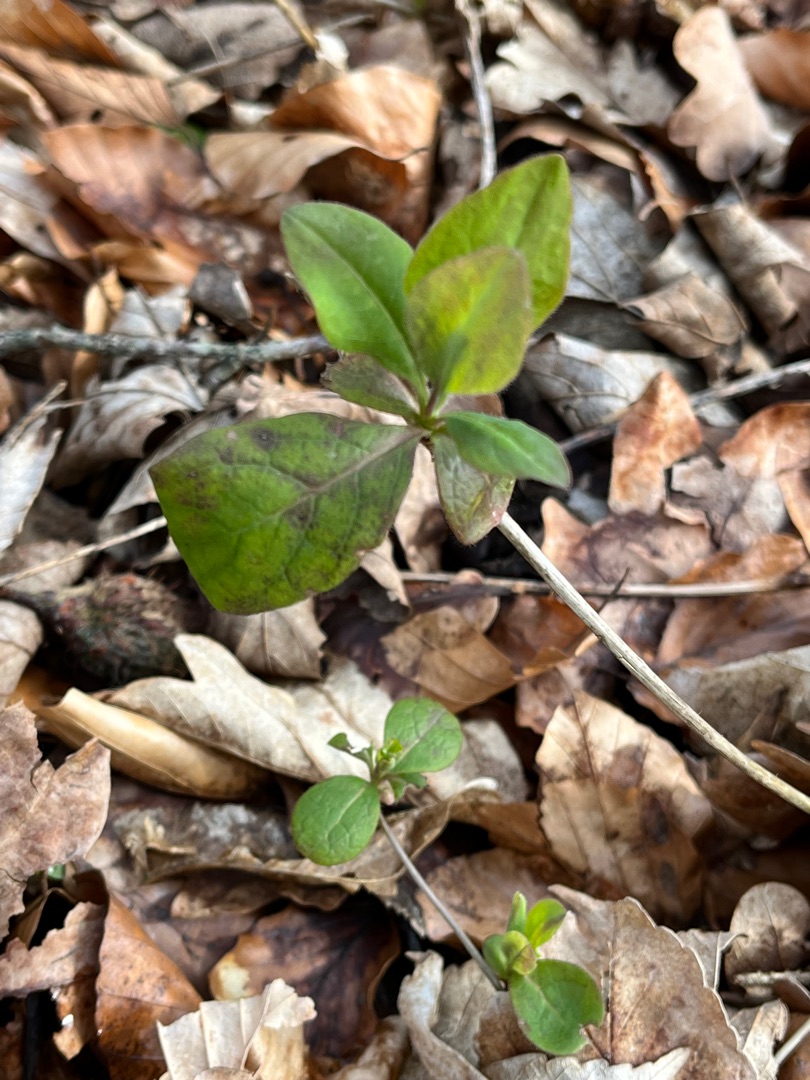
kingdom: Plantae
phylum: Tracheophyta
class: Magnoliopsida
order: Dipsacales
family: Caprifoliaceae
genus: Lonicera
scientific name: Lonicera periclymenum
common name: Almindelig gedeblad
